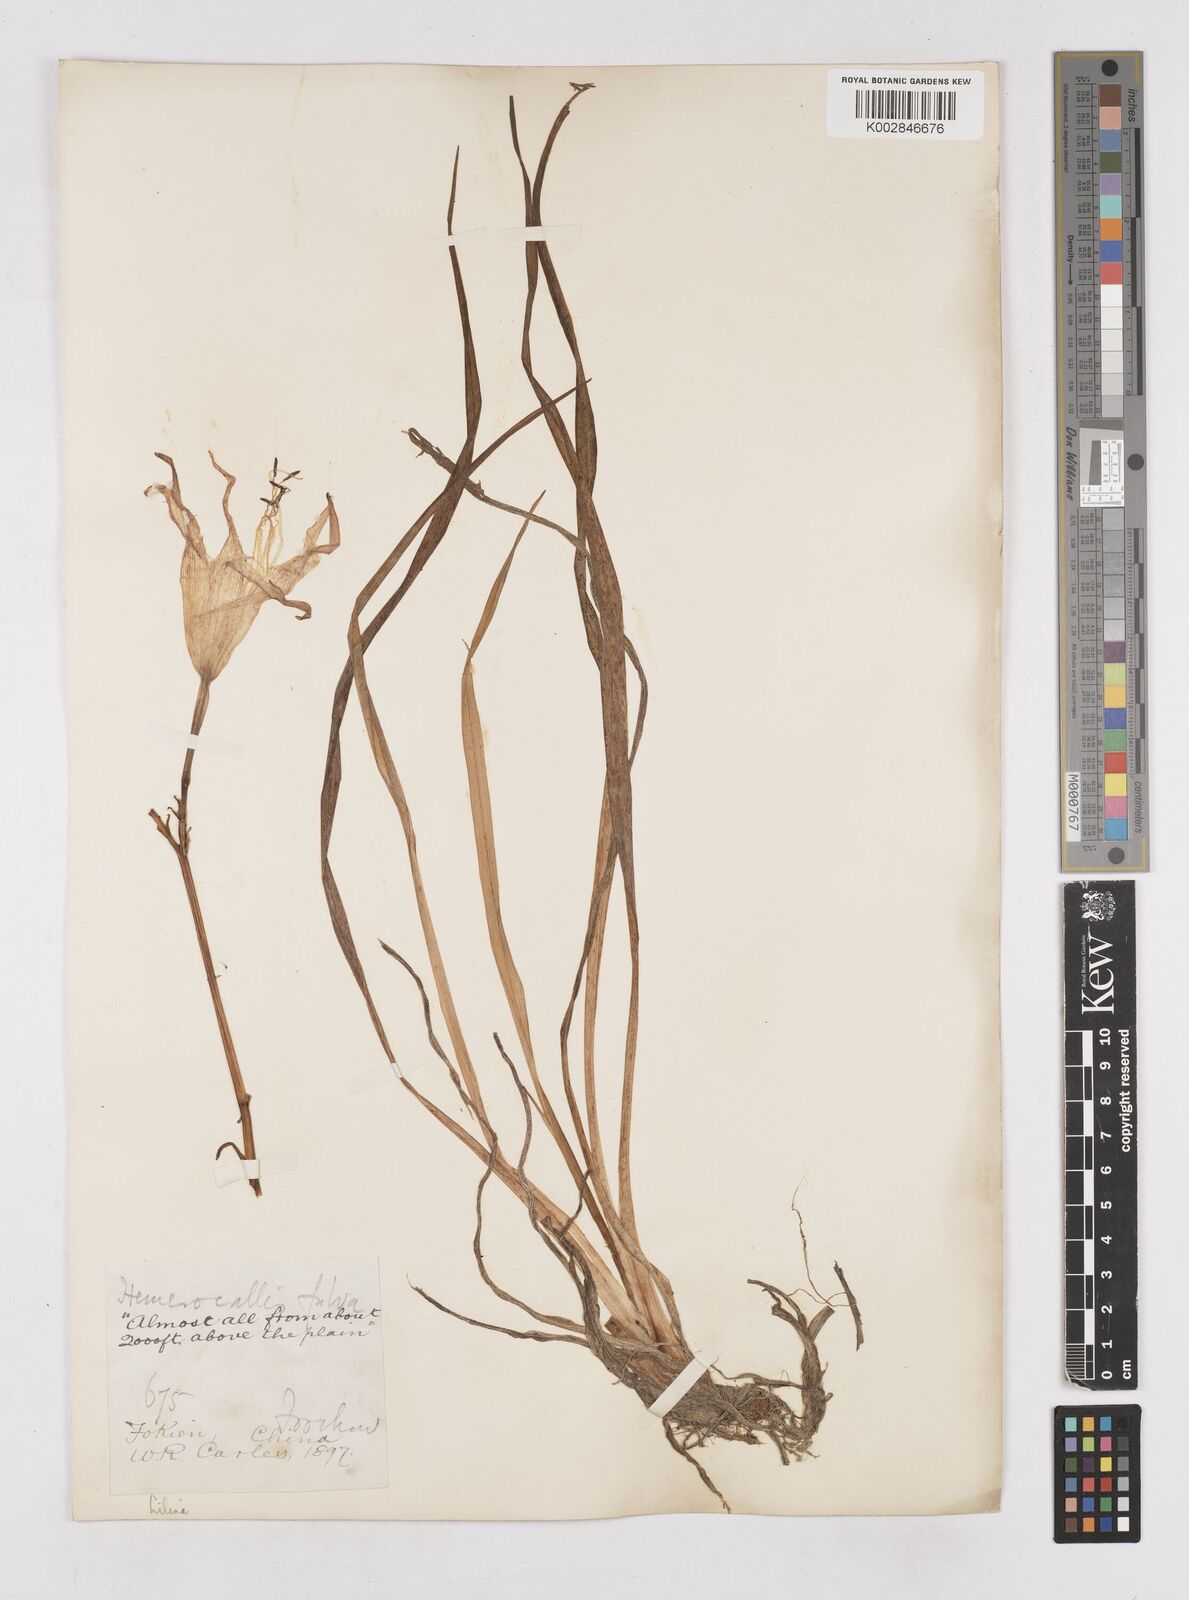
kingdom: Plantae
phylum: Tracheophyta
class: Liliopsida
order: Asparagales
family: Asphodelaceae
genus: Hemerocallis
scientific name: Hemerocallis fulva
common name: Orange day-lily
